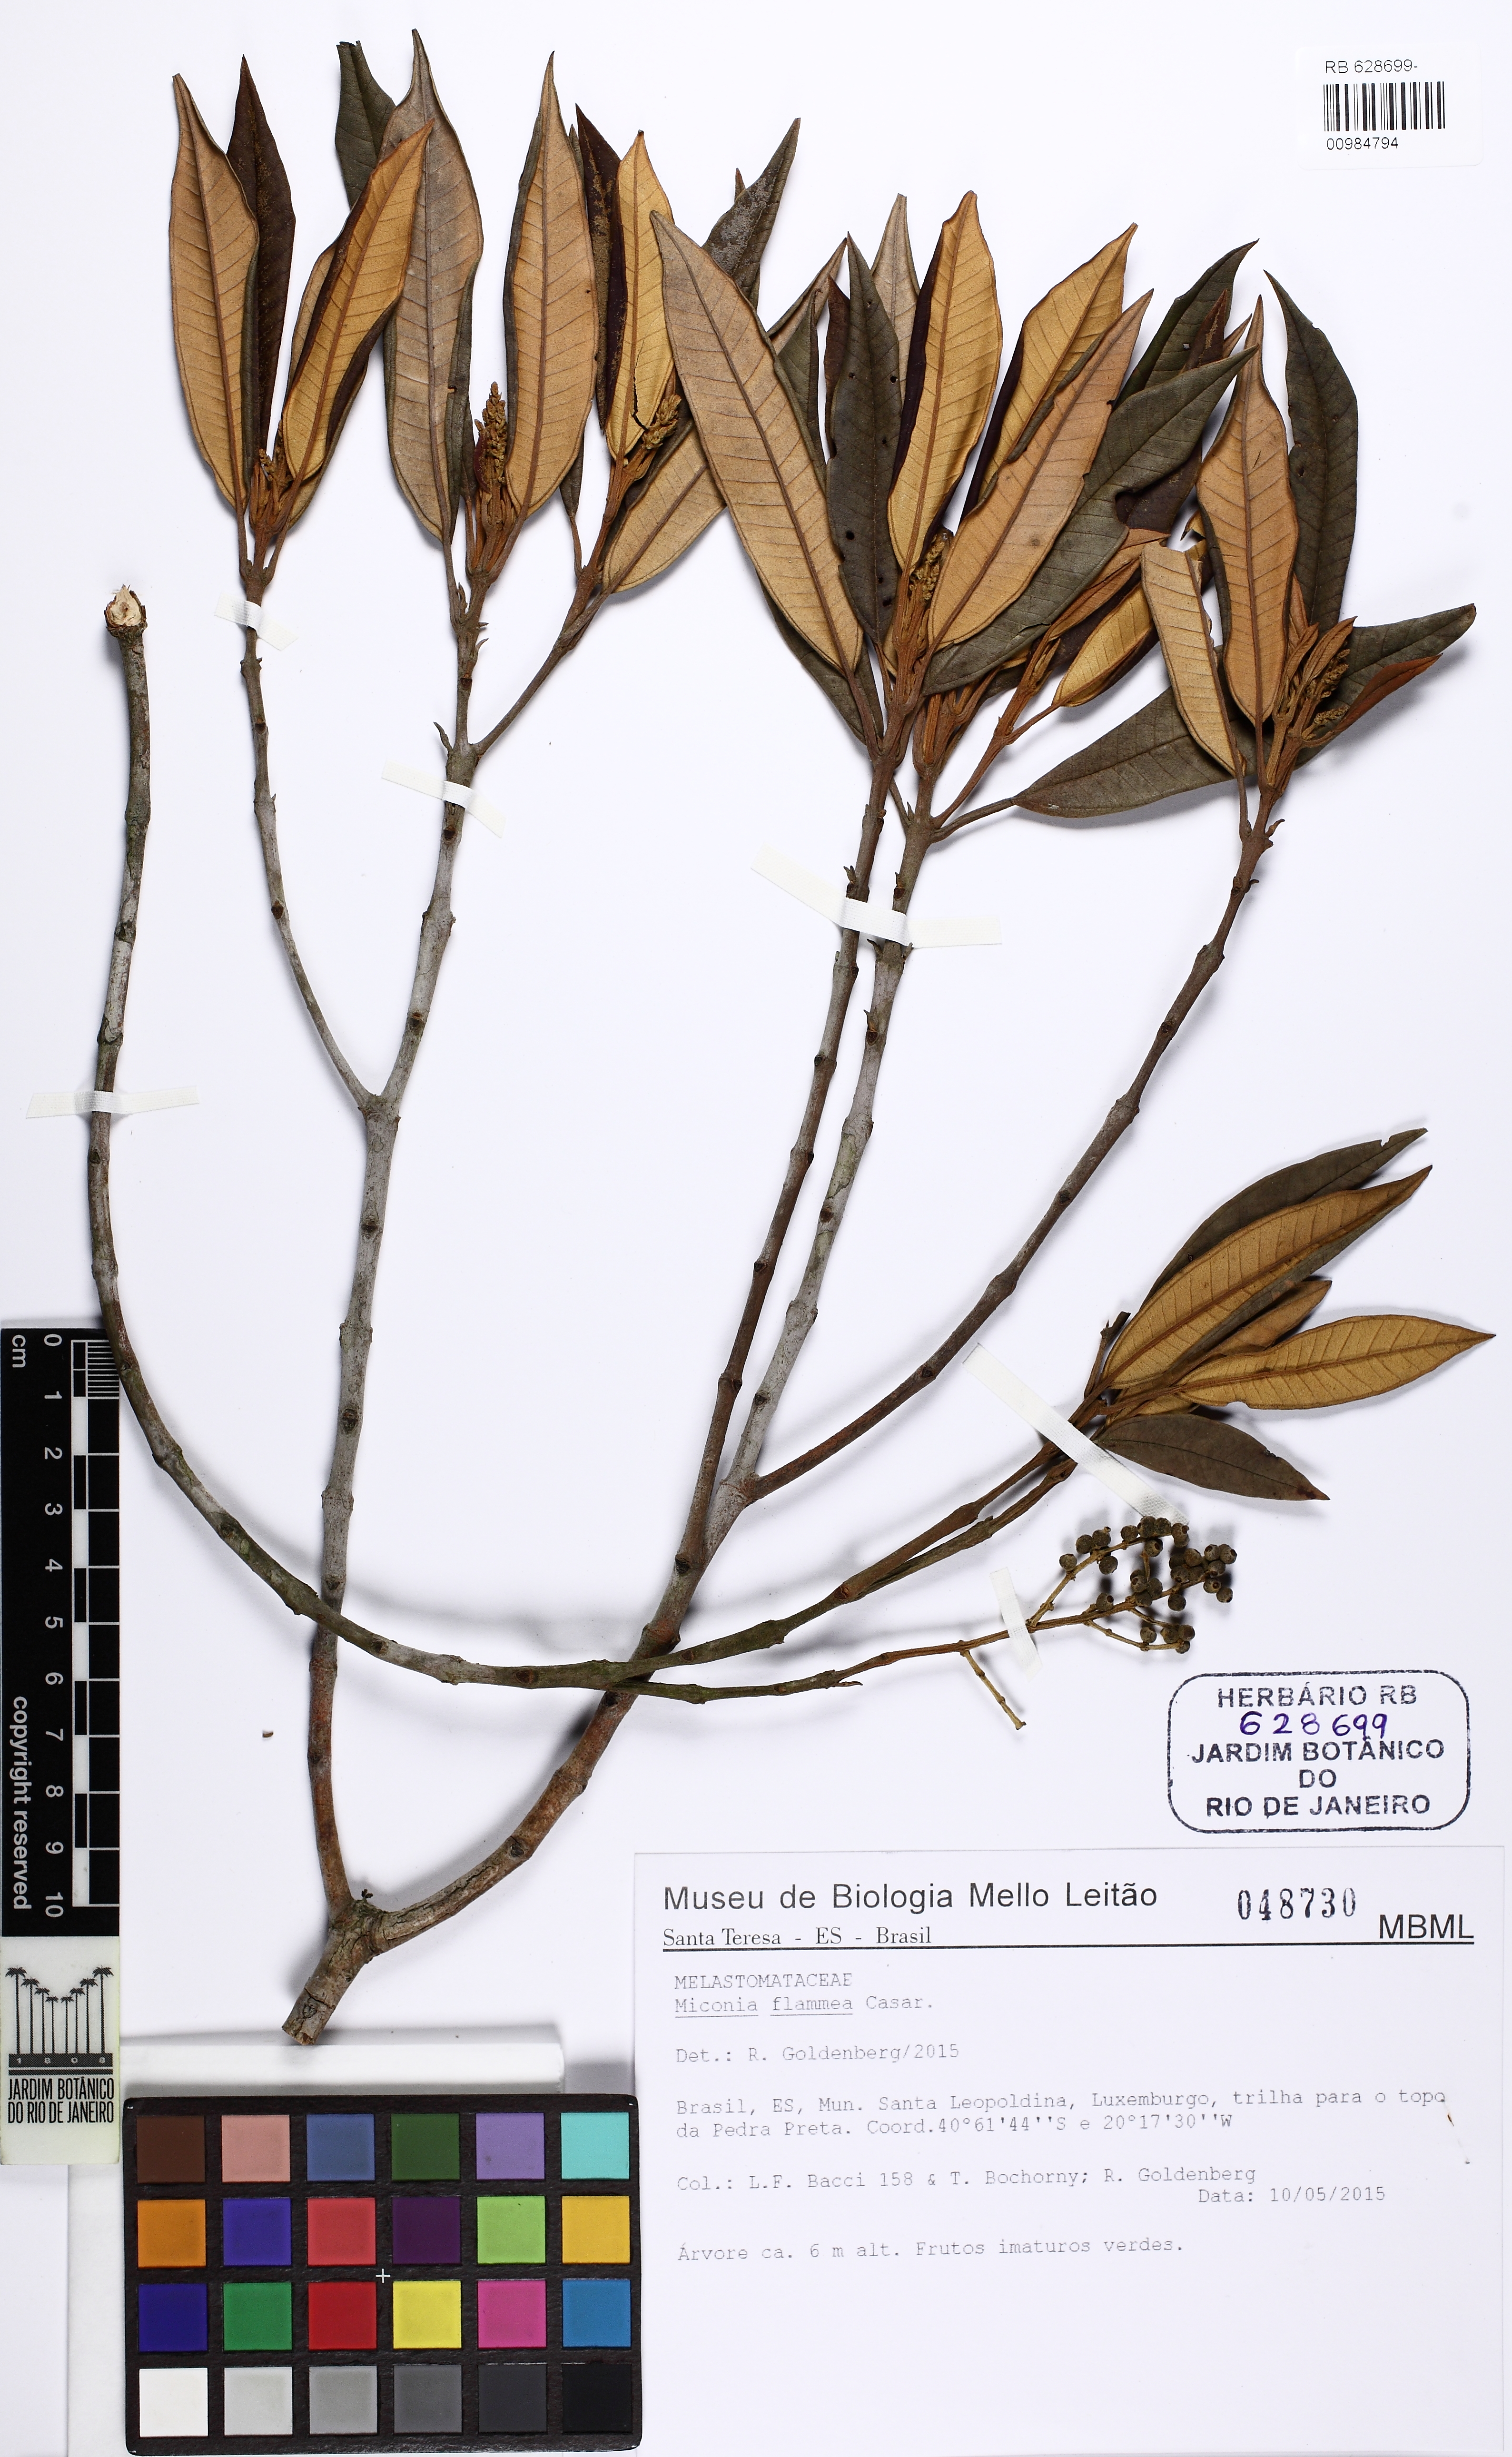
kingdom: Plantae
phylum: Tracheophyta
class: Magnoliopsida
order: Myrtales
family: Melastomataceae
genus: Miconia
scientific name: Miconia flammea
